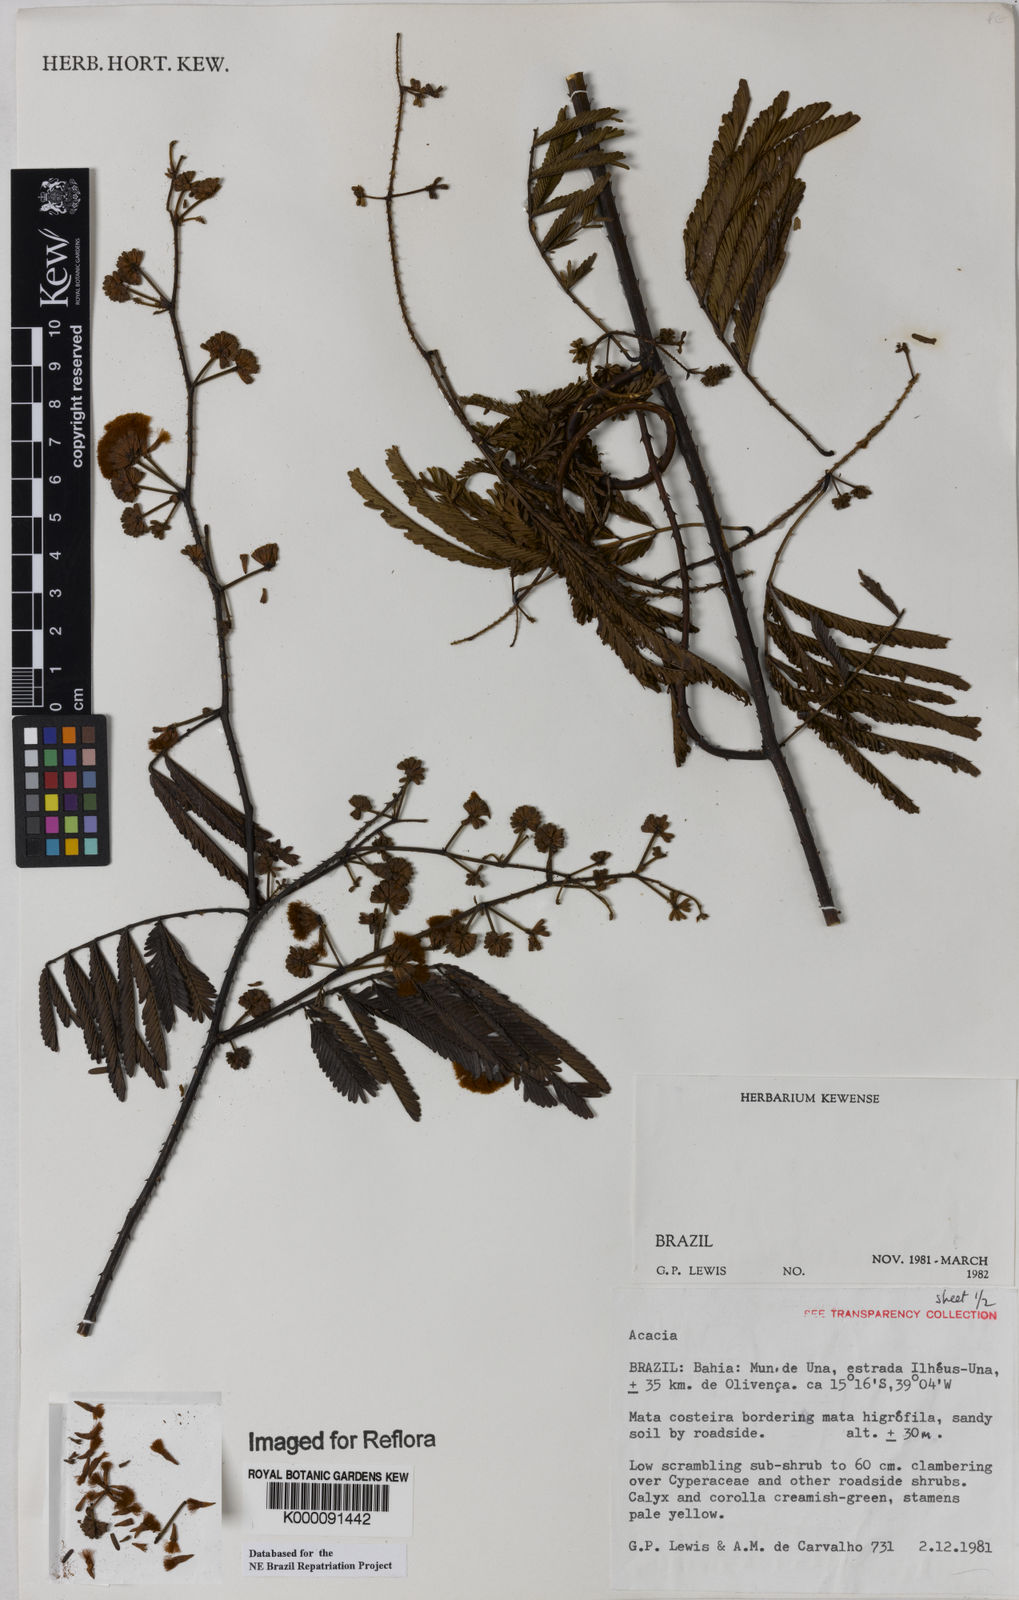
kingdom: Plantae
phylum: Tracheophyta
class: Magnoliopsida
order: Fabales
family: Fabaceae
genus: Acacia
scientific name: Acacia
